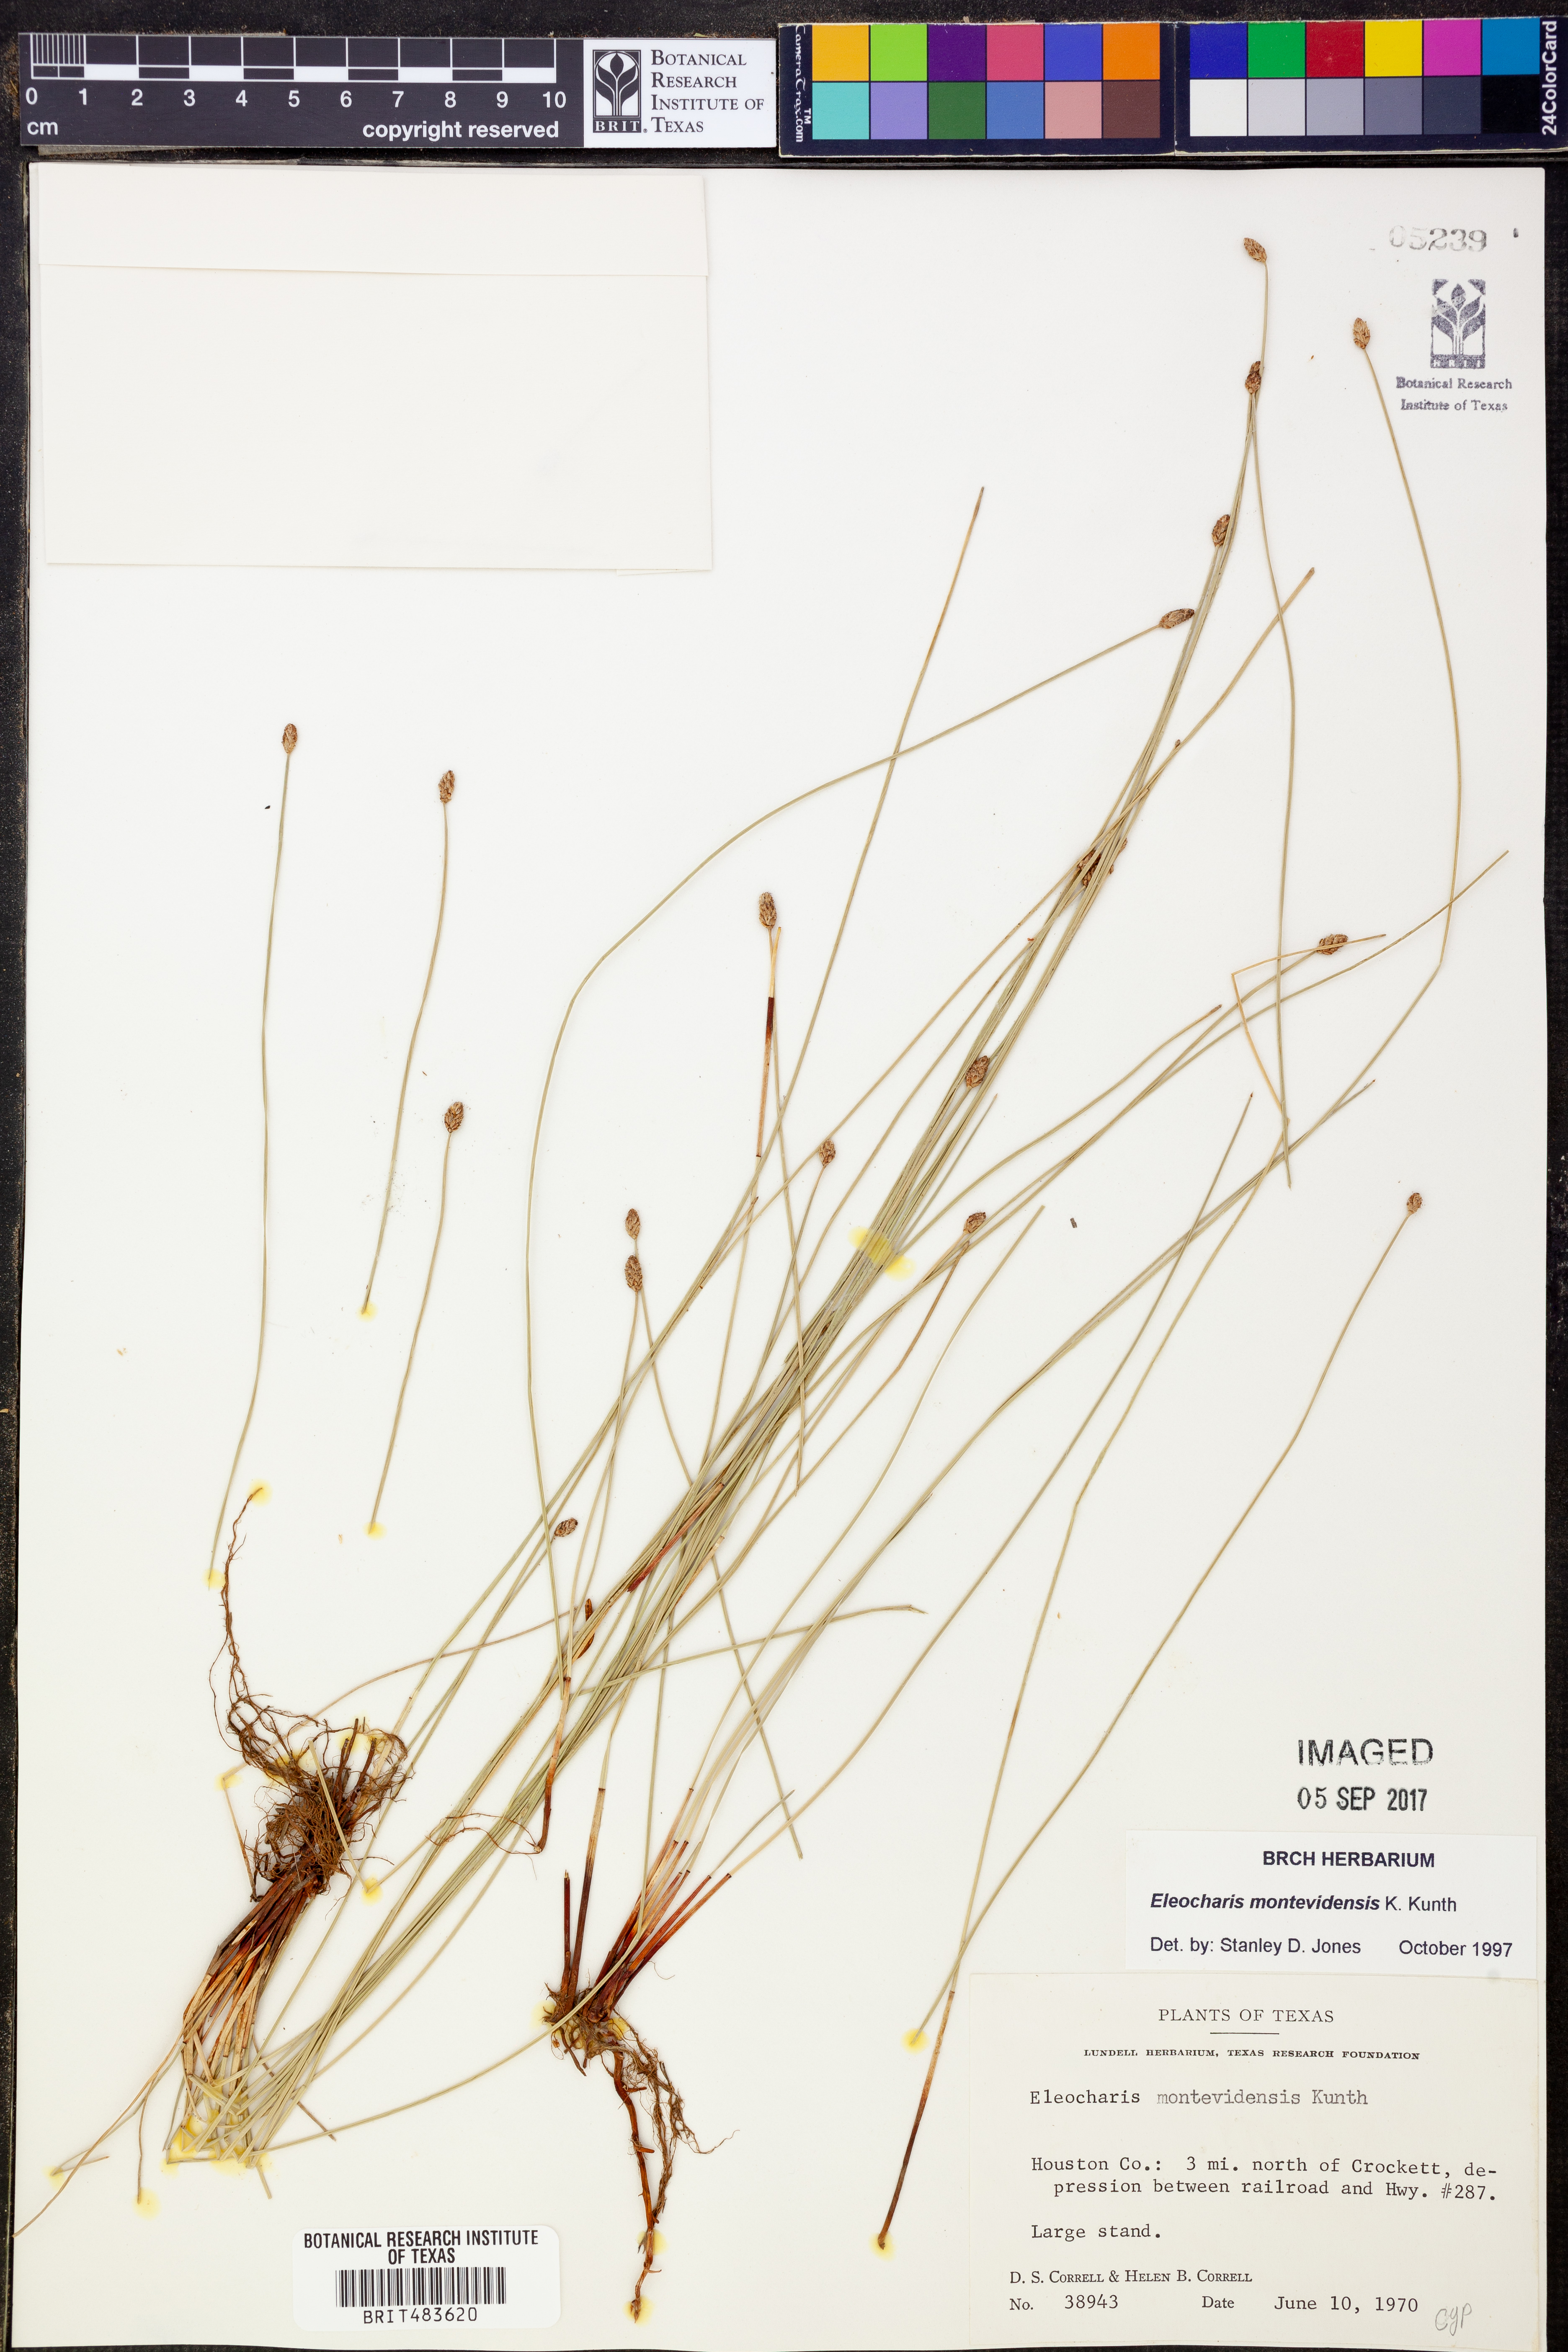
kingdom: Plantae
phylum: Tracheophyta
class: Liliopsida
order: Poales
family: Cyperaceae
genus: Eleocharis
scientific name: Eleocharis montevidensis
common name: Sand spike-rush
